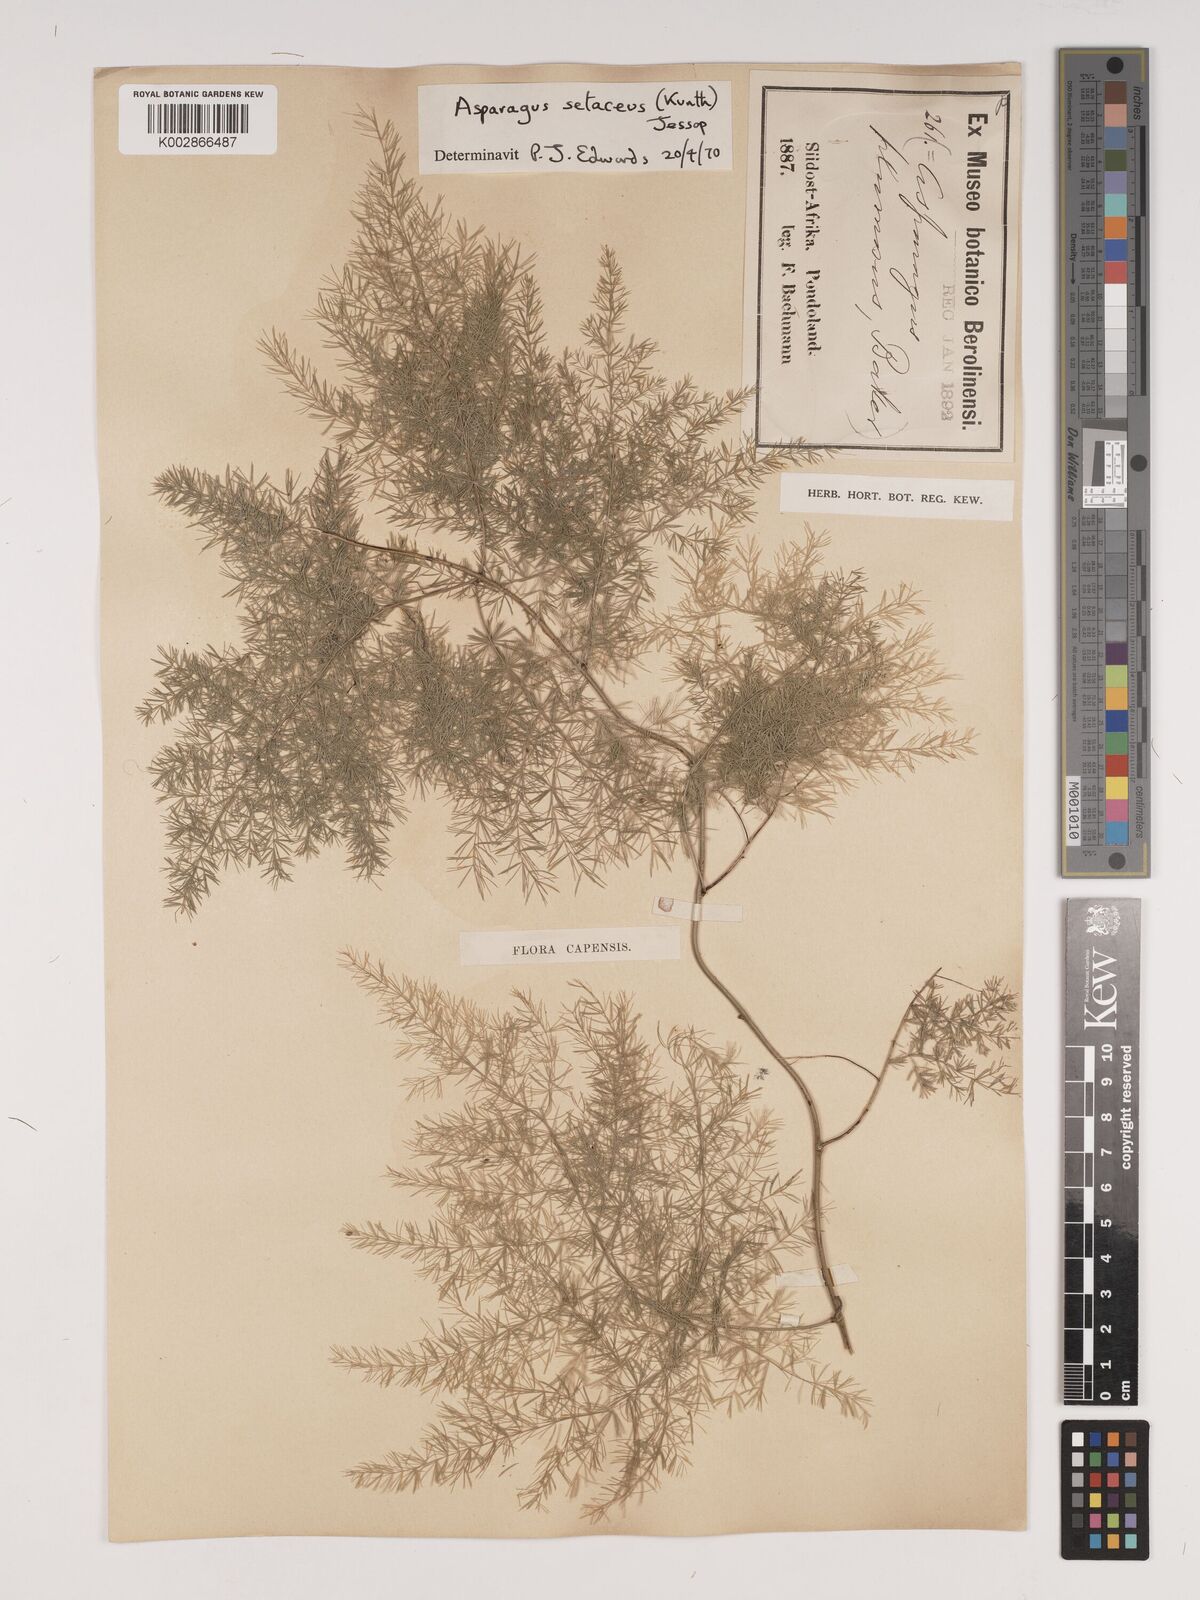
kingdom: Plantae
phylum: Tracheophyta
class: Liliopsida
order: Asparagales
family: Asparagaceae
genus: Asparagus
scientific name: Asparagus setaceus
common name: Common asparagus fern
